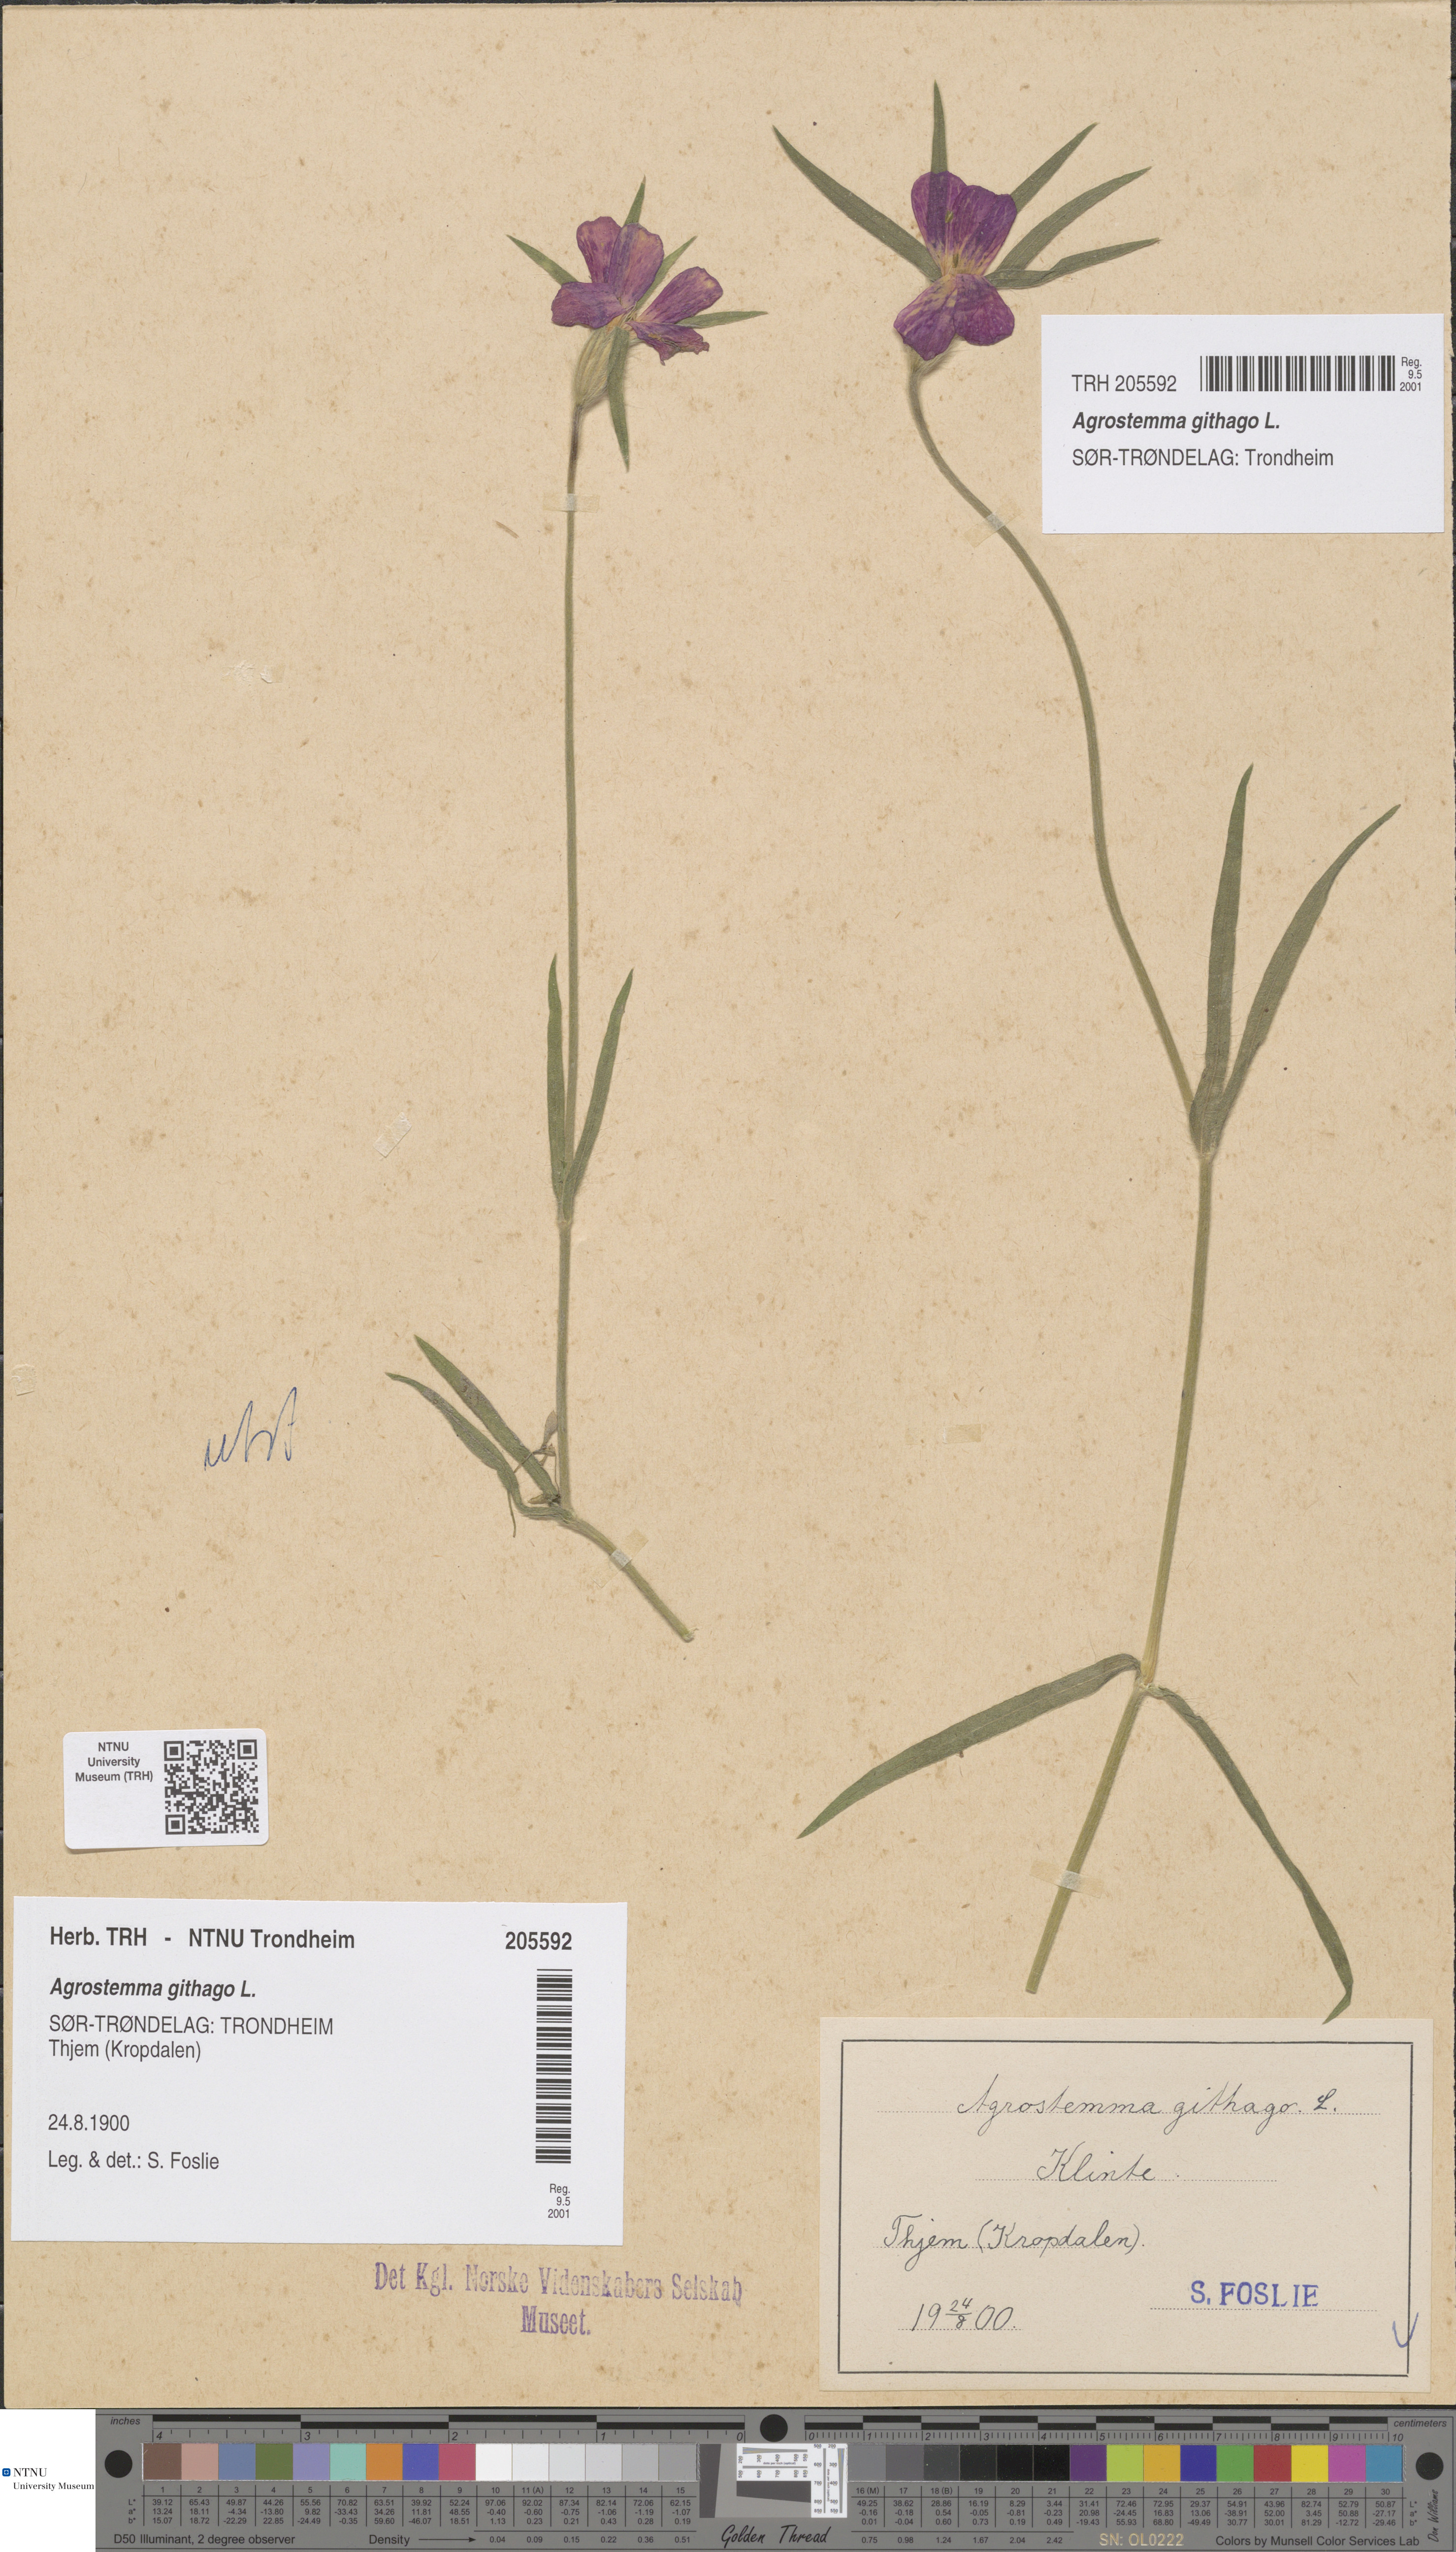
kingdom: Plantae
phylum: Tracheophyta
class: Magnoliopsida
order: Caryophyllales
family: Caryophyllaceae
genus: Agrostemma
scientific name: Agrostemma githago
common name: Common corncockle
